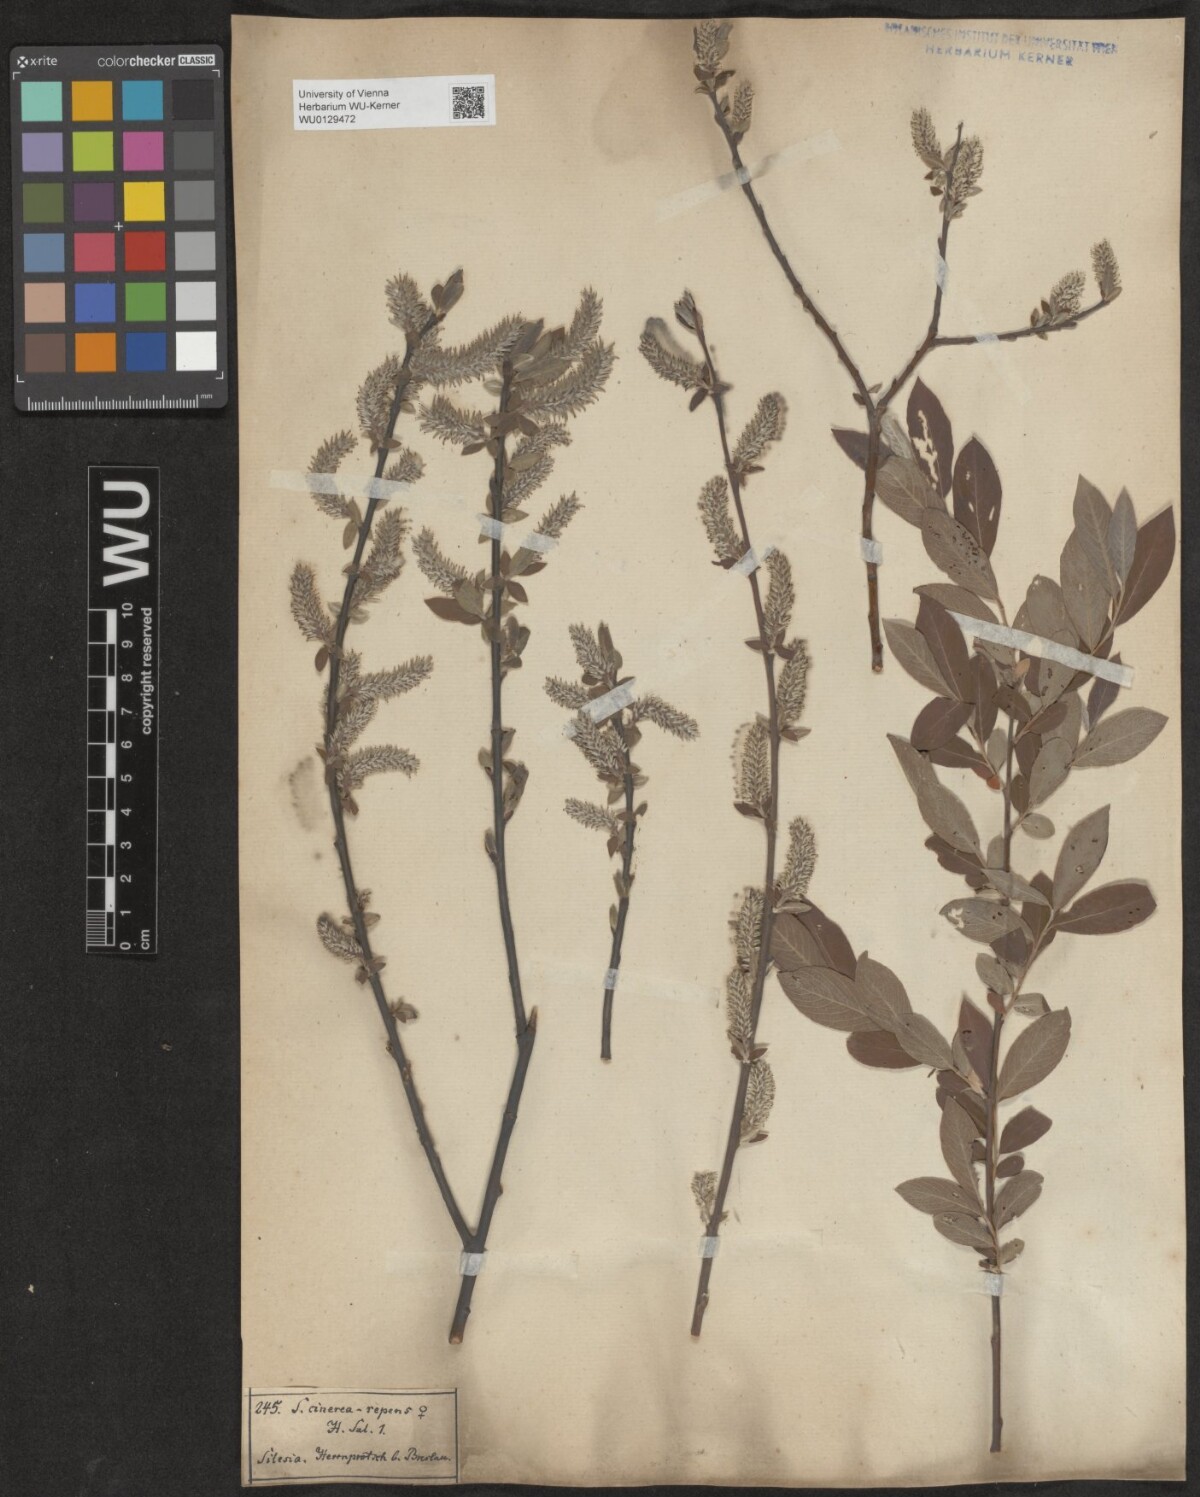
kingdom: Plantae
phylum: Tracheophyta
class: Magnoliopsida
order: Malpighiales
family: Salicaceae
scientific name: Salicaceae
